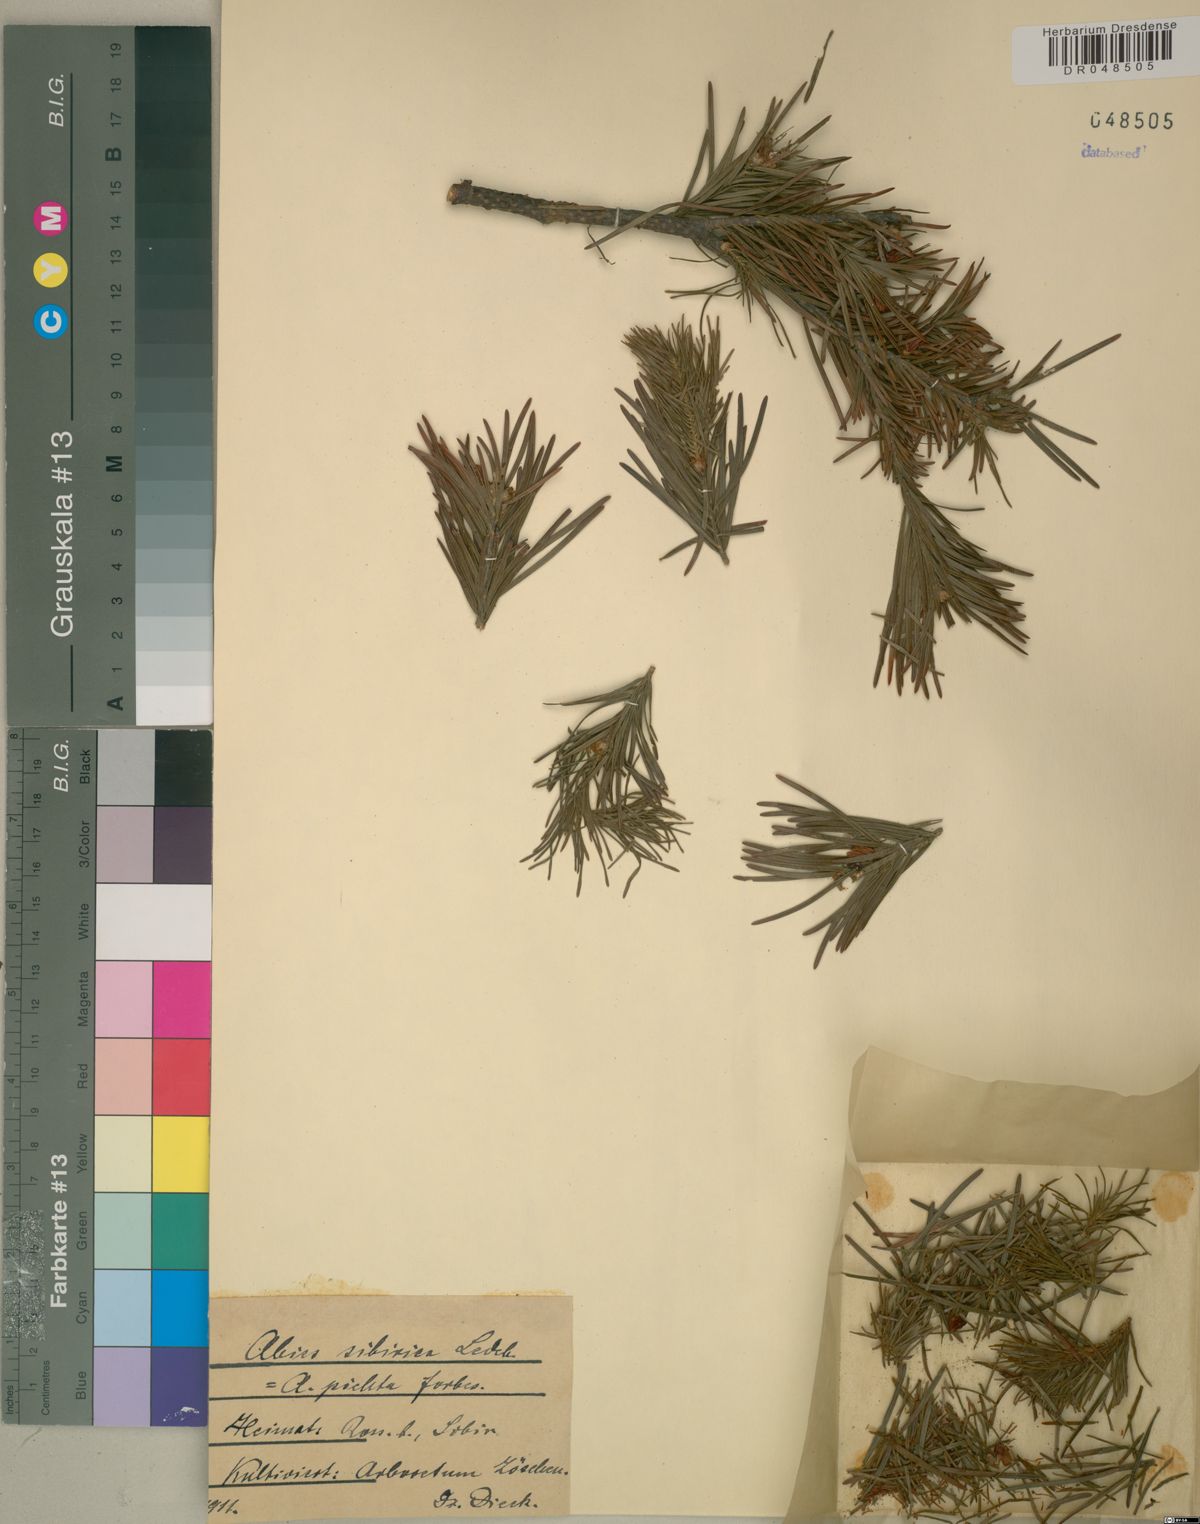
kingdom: Plantae
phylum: Tracheophyta
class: Pinopsida
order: Pinales
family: Pinaceae
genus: Abies
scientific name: Abies sibirica
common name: Siberian fir
